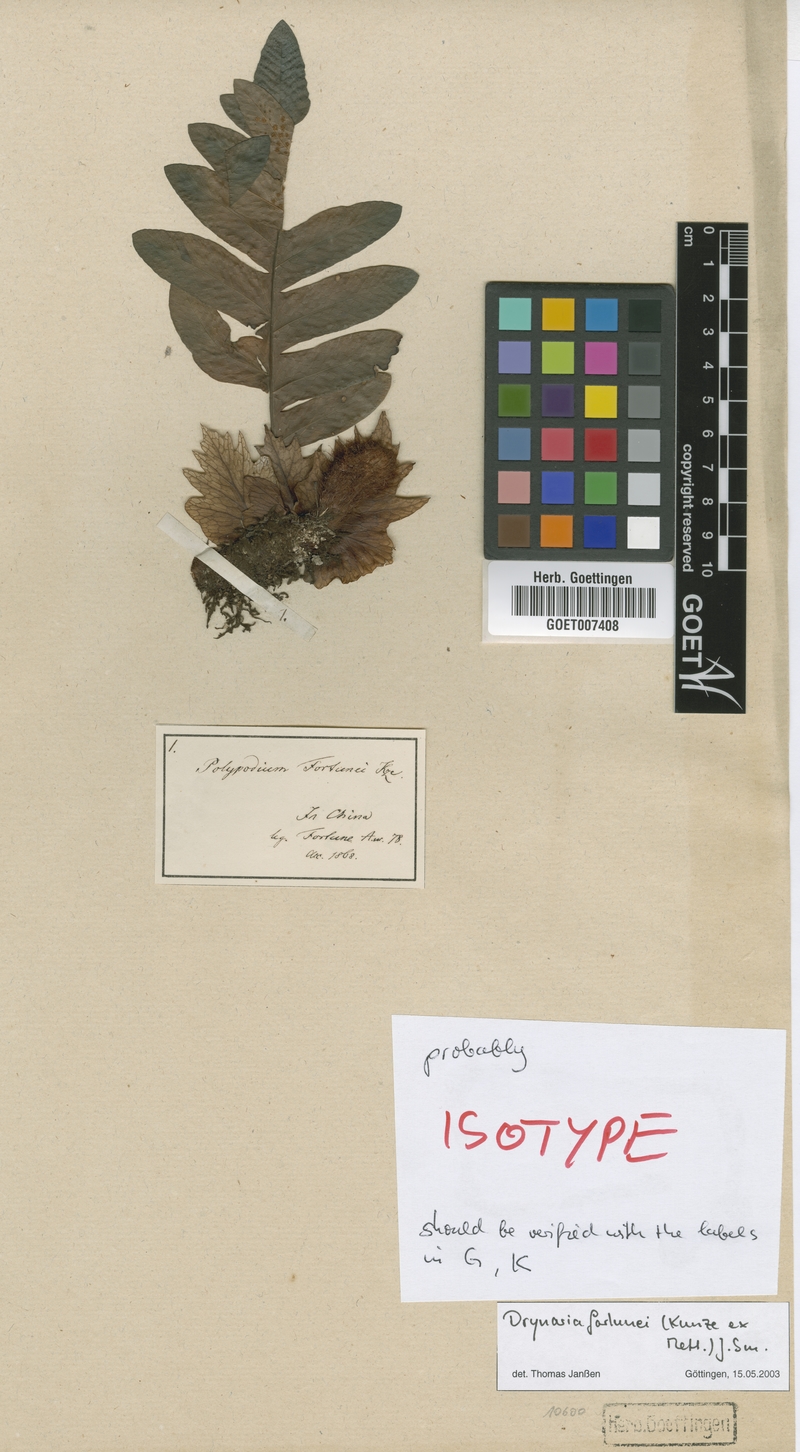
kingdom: Plantae
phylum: Tracheophyta
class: Polypodiopsida
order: Polypodiales
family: Polypodiaceae
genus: Drynaria
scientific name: Drynaria roosii
